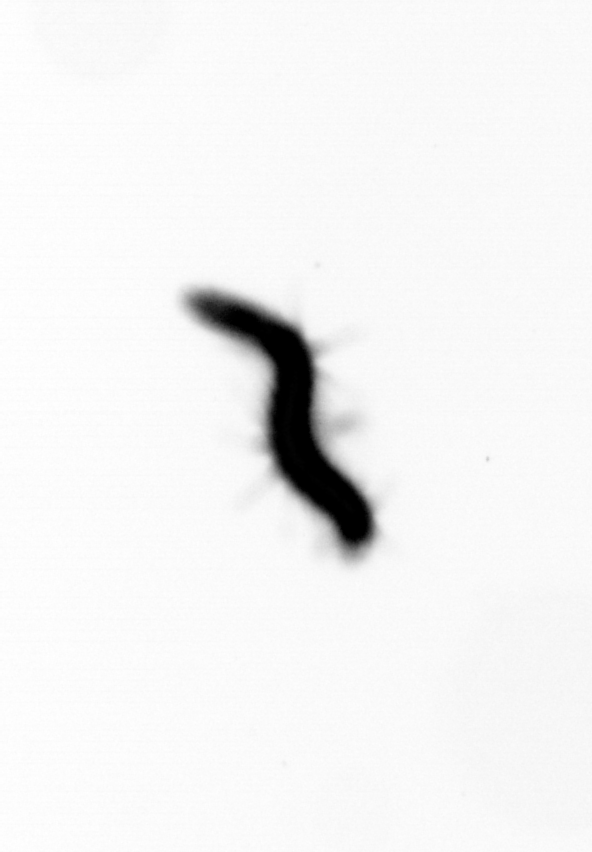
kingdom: Animalia
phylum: Annelida
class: Polychaeta
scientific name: Polychaeta
